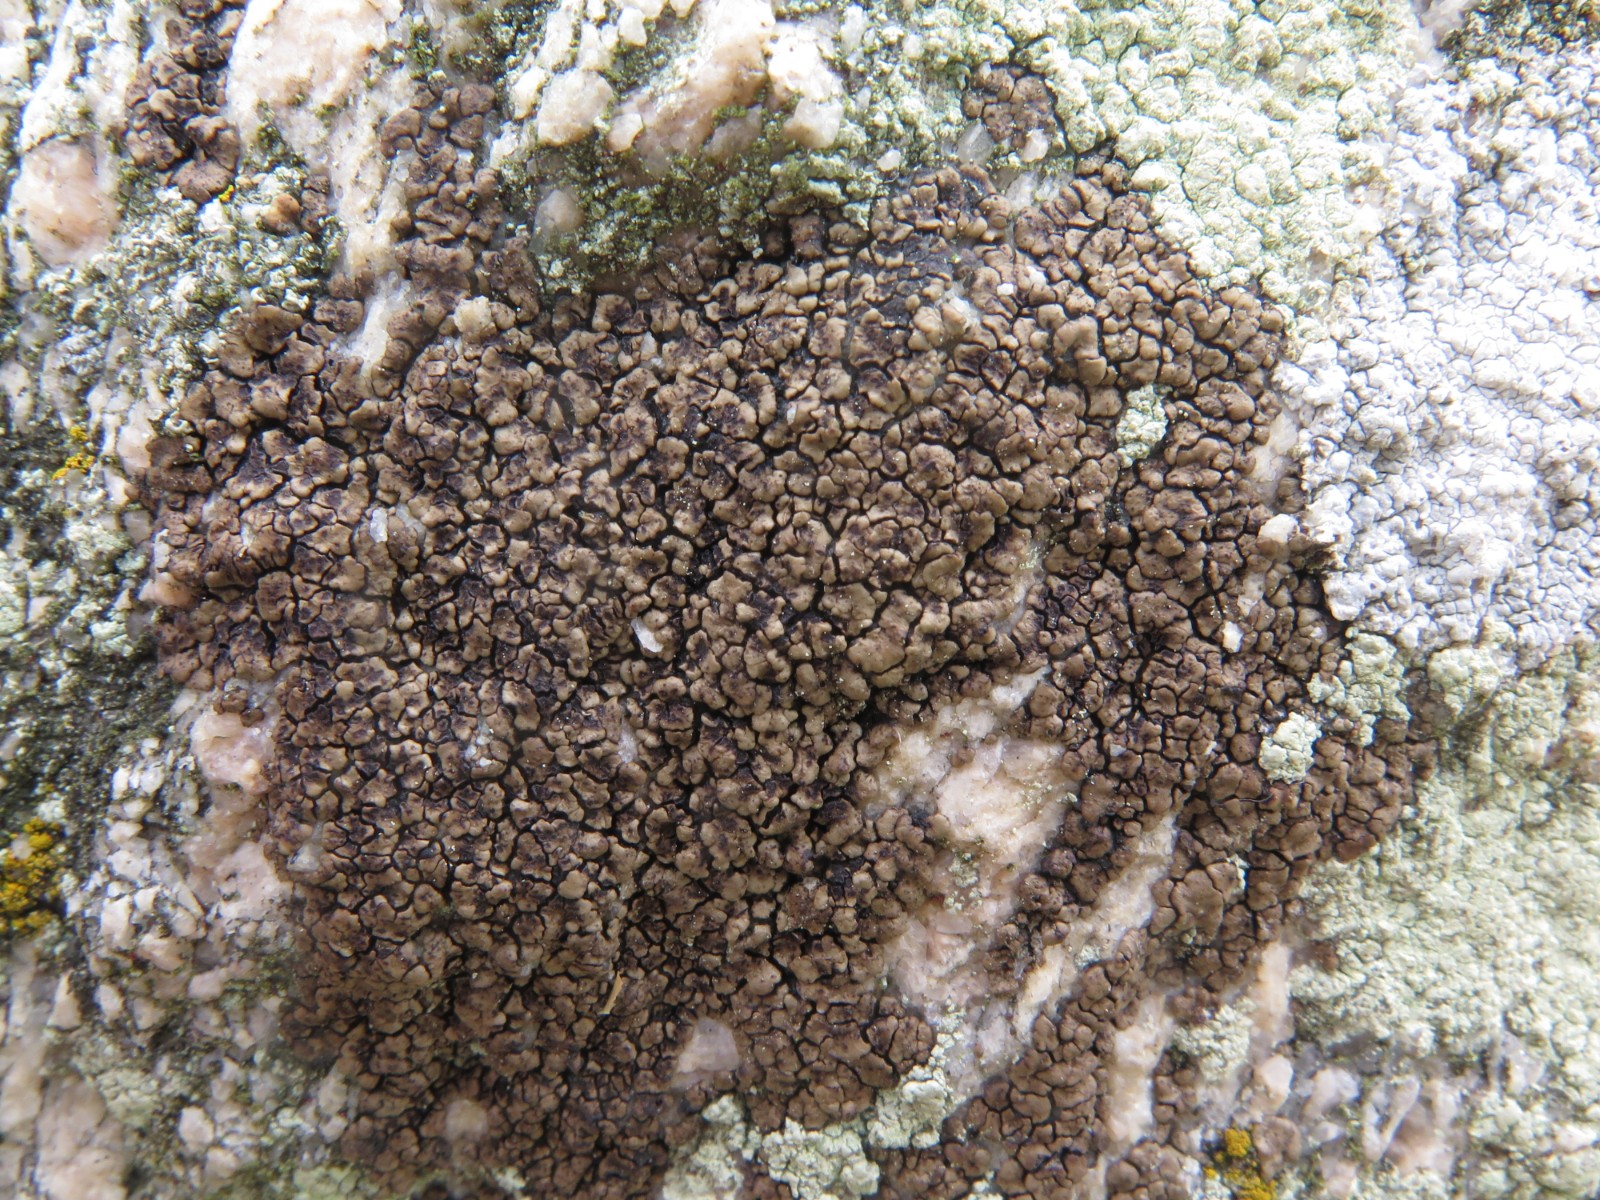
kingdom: Fungi
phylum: Ascomycota
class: Lecanoromycetes
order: Acarosporales
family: Acarosporaceae
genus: Acarospora
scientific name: Acarospora fuscata
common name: brun småsporelav
